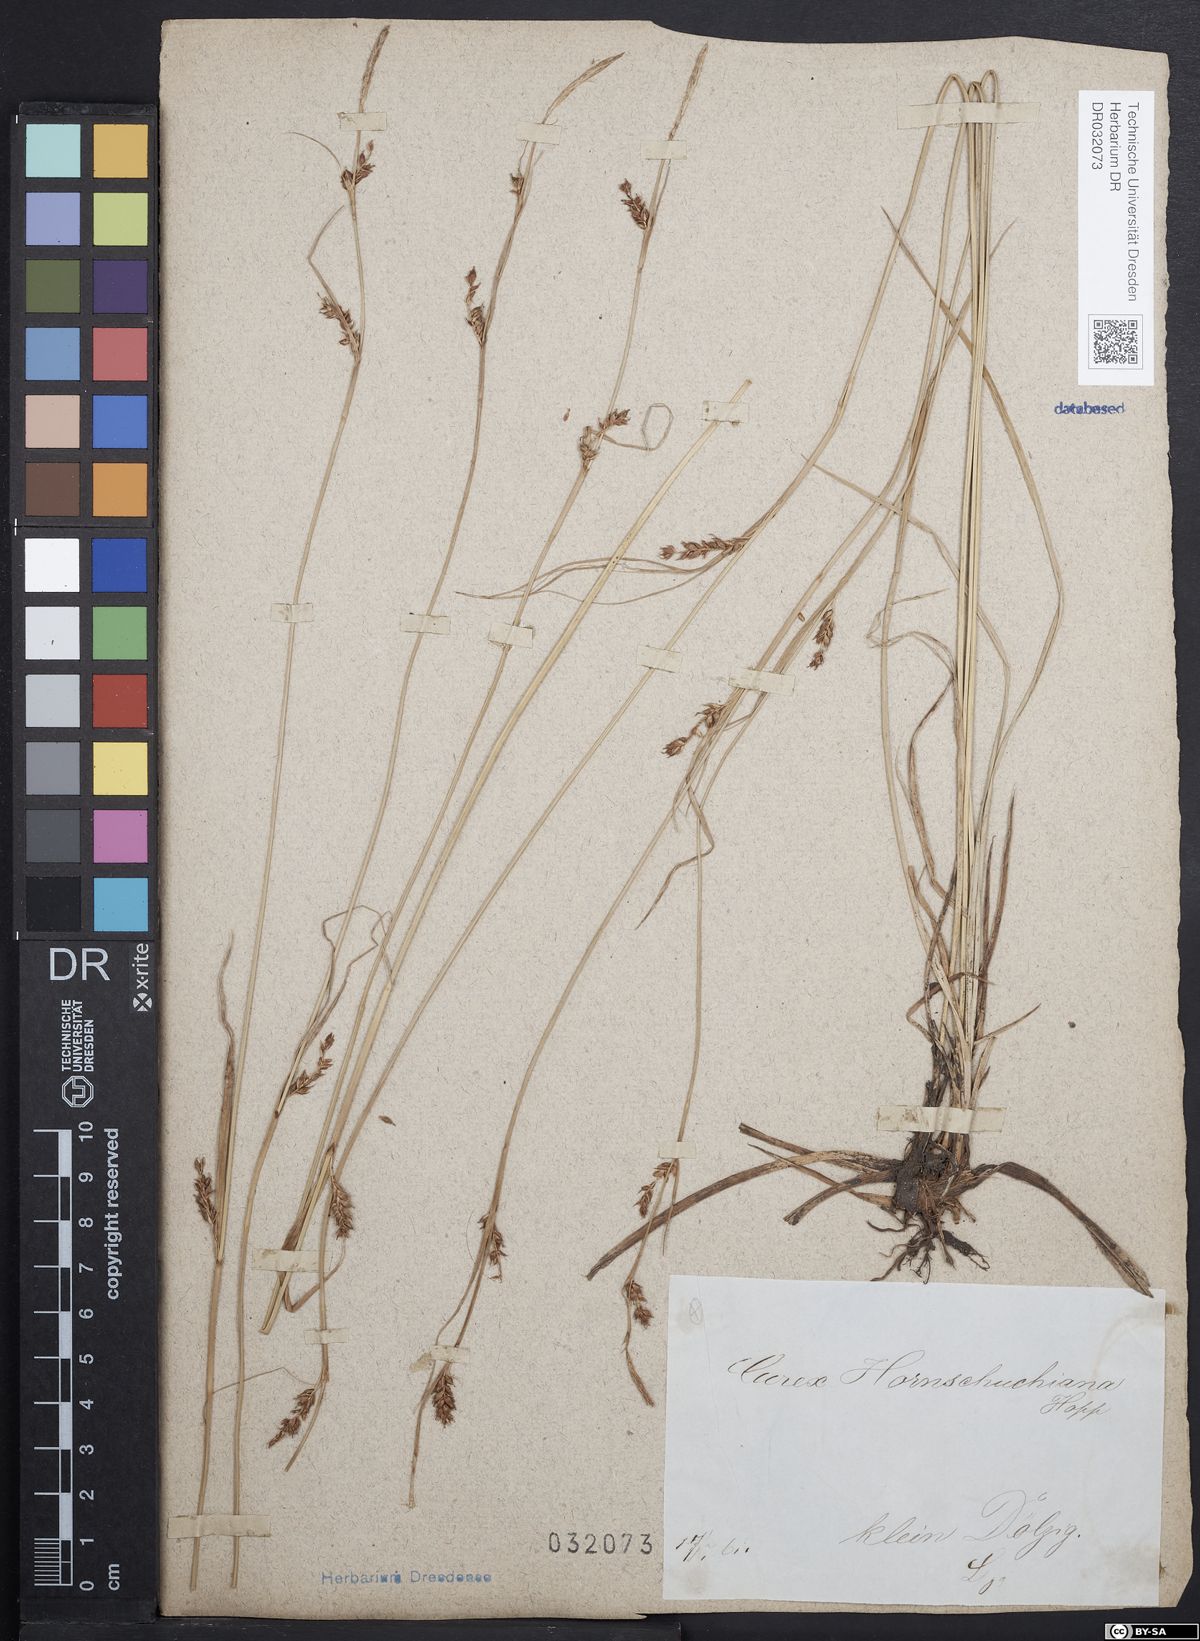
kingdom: Plantae
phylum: Tracheophyta
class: Liliopsida
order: Poales
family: Cyperaceae
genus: Carex
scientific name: Carex hostiana
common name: Tawny sedge
